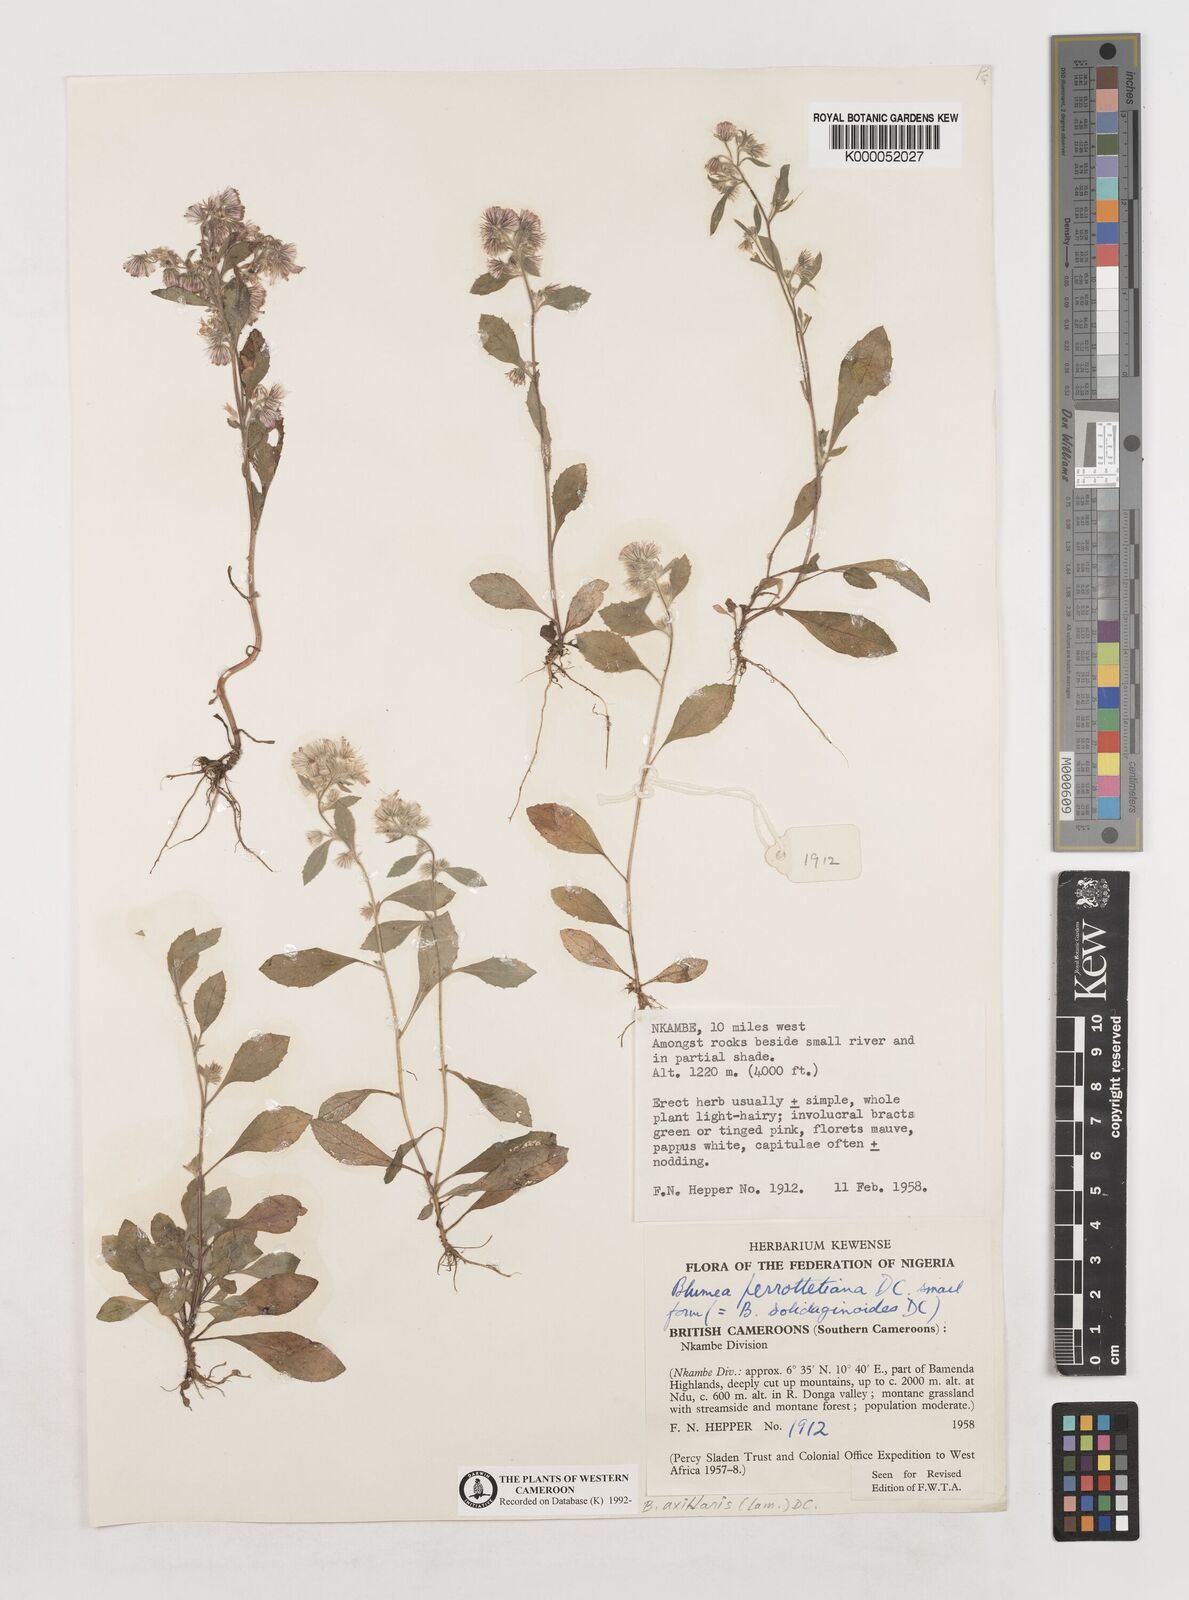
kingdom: Plantae
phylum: Tracheophyta
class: Magnoliopsida
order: Asterales
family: Asteraceae
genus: Blumea
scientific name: Blumea axillaris
